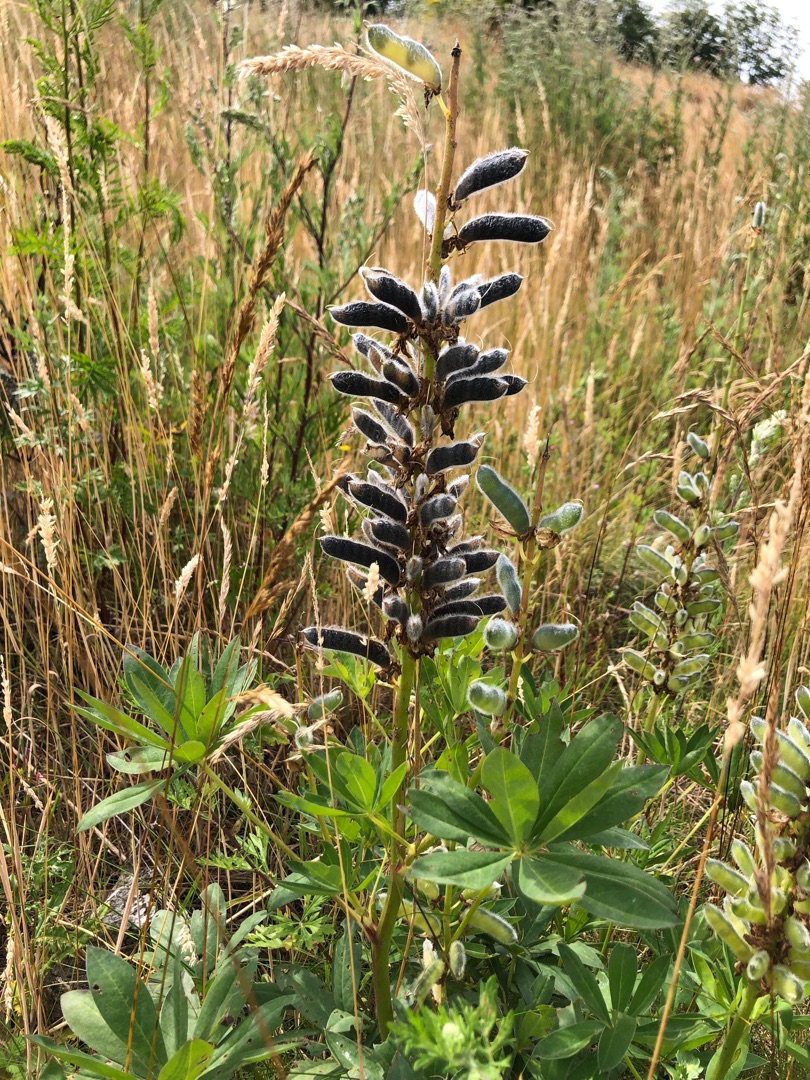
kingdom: Plantae
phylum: Tracheophyta
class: Magnoliopsida
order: Fabales
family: Fabaceae
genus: Lupinus
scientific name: Lupinus polyphyllus
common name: Mangebladet lupin
